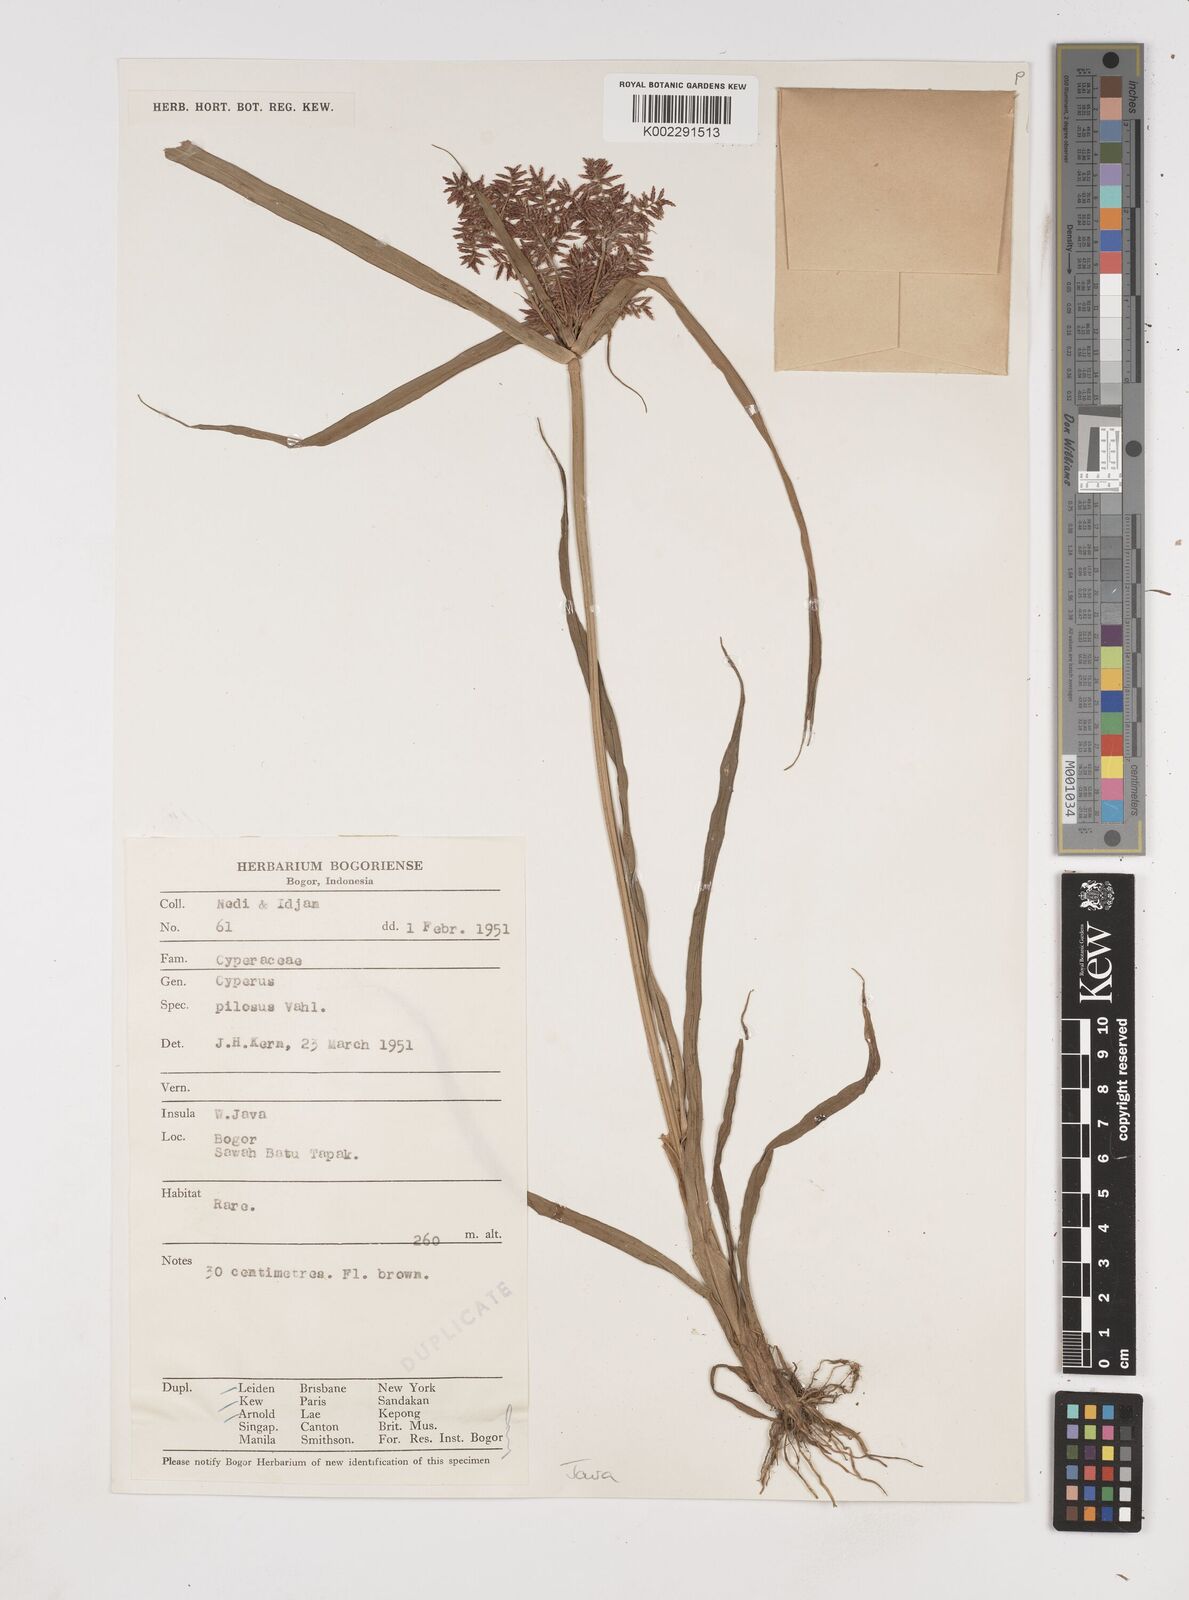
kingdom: Plantae
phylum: Tracheophyta
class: Liliopsida
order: Poales
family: Cyperaceae
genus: Cyperus
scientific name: Cyperus pilosus
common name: Fuzzy flatsedge
